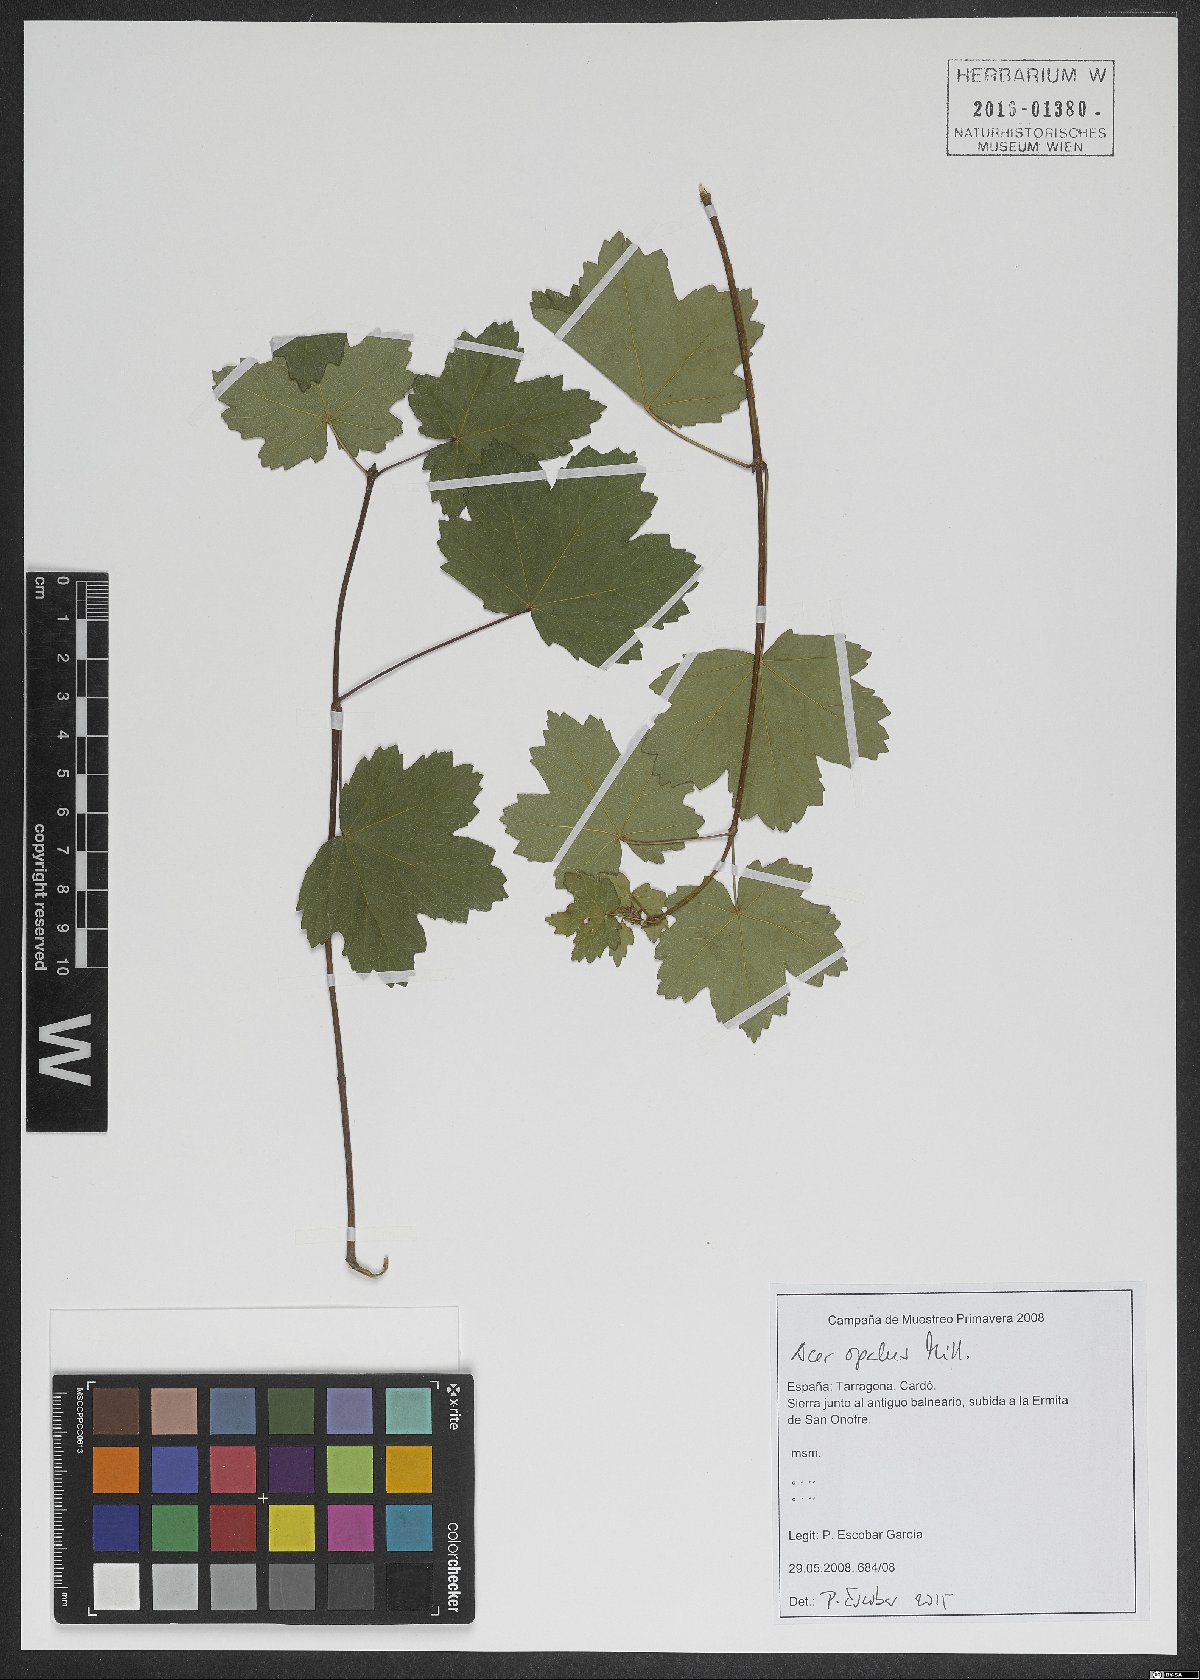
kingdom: Plantae
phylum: Tracheophyta
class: Magnoliopsida
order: Sapindales
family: Sapindaceae
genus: Acer
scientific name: Acer opalus
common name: Italian maple
